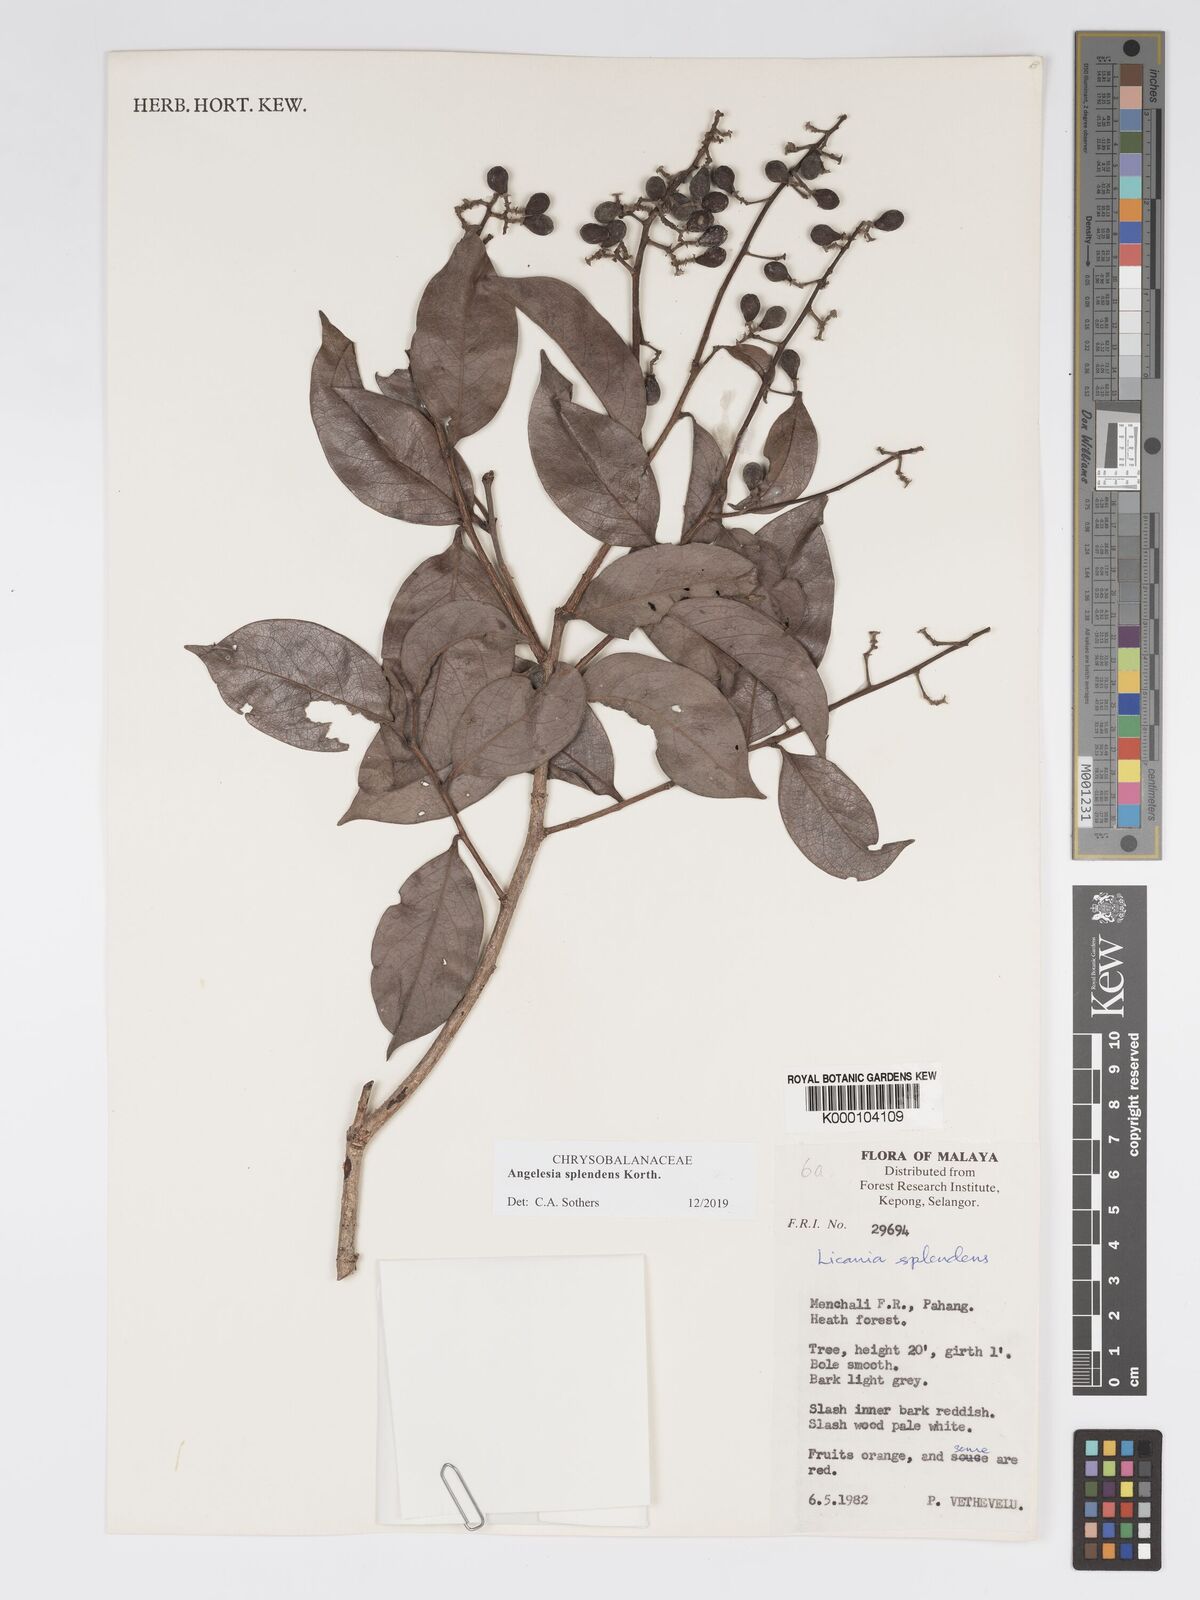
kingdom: Plantae
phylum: Tracheophyta
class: Magnoliopsida
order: Malpighiales
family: Chrysobalanaceae
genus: Angelesia
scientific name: Angelesia splendens
